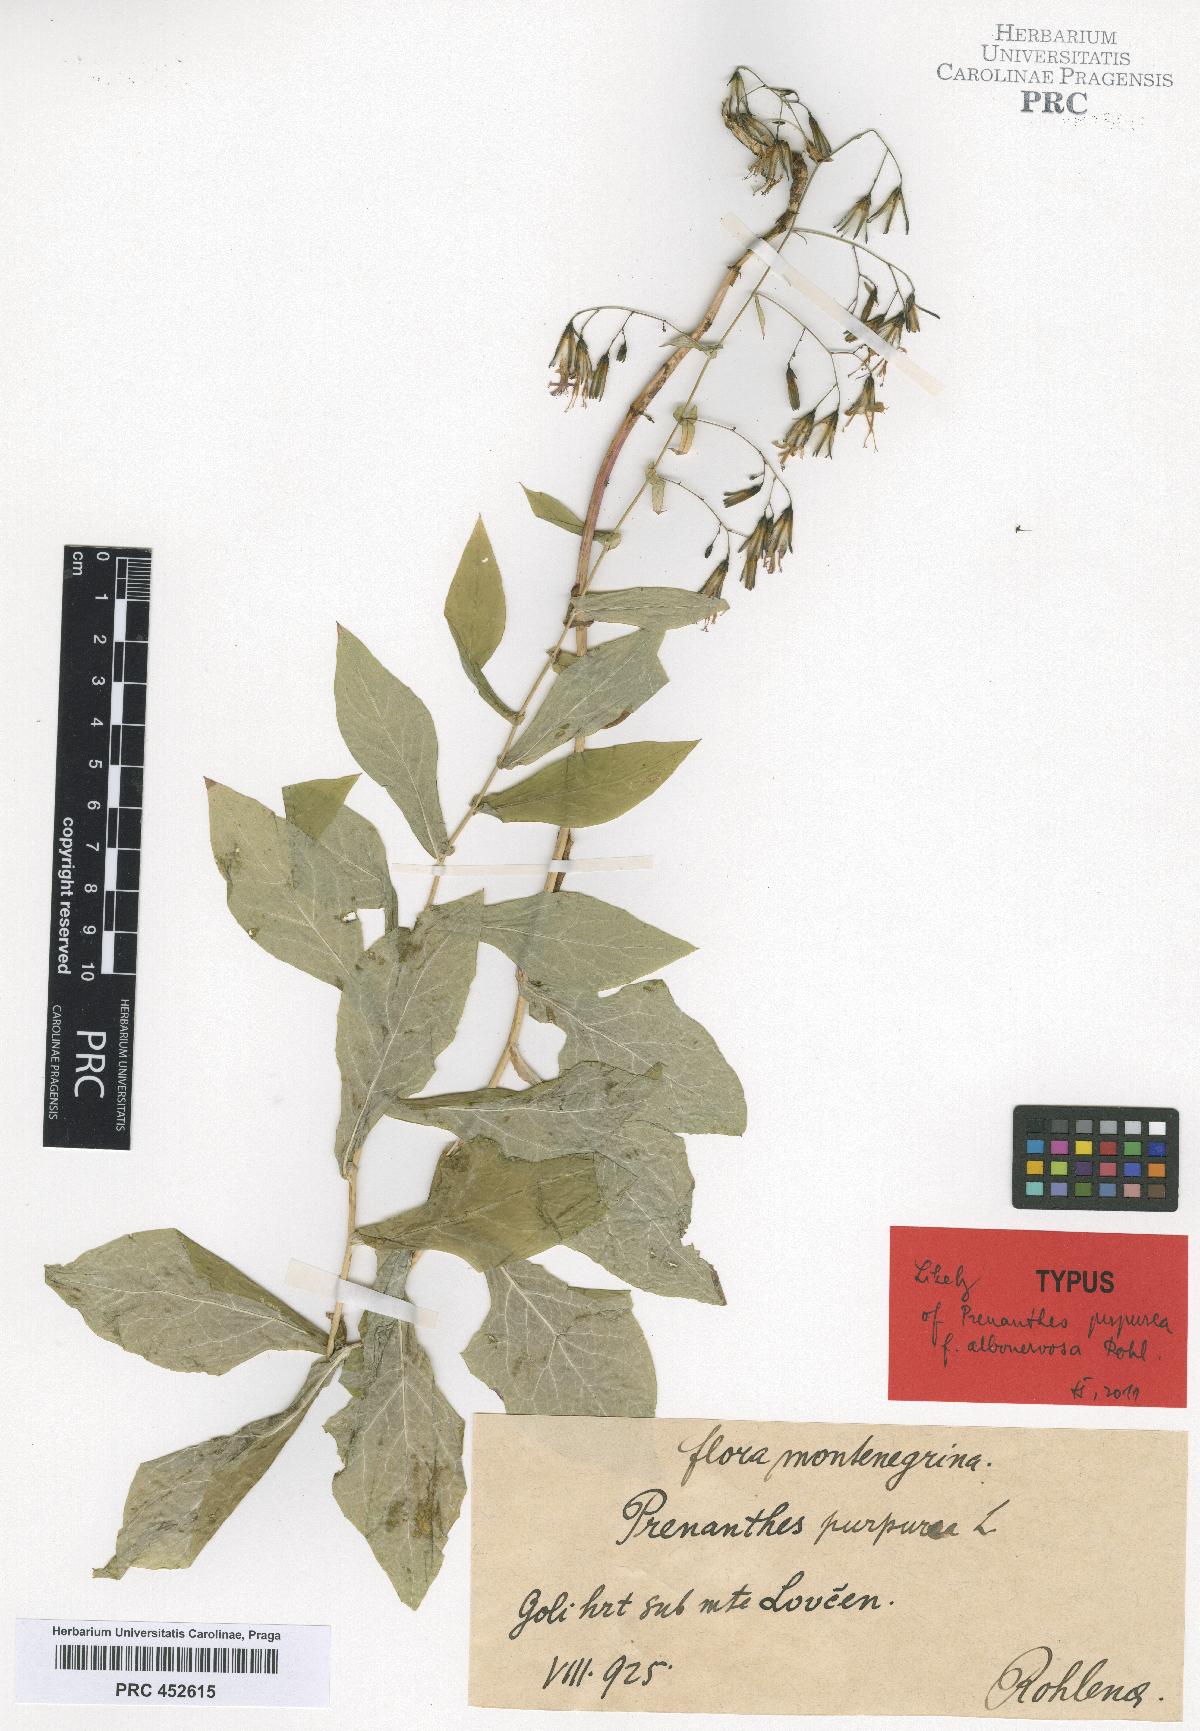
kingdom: Plantae
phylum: Tracheophyta
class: Magnoliopsida
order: Asterales
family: Asteraceae
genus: Prenanthes
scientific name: Prenanthes purpurea
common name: Purple lettuce
